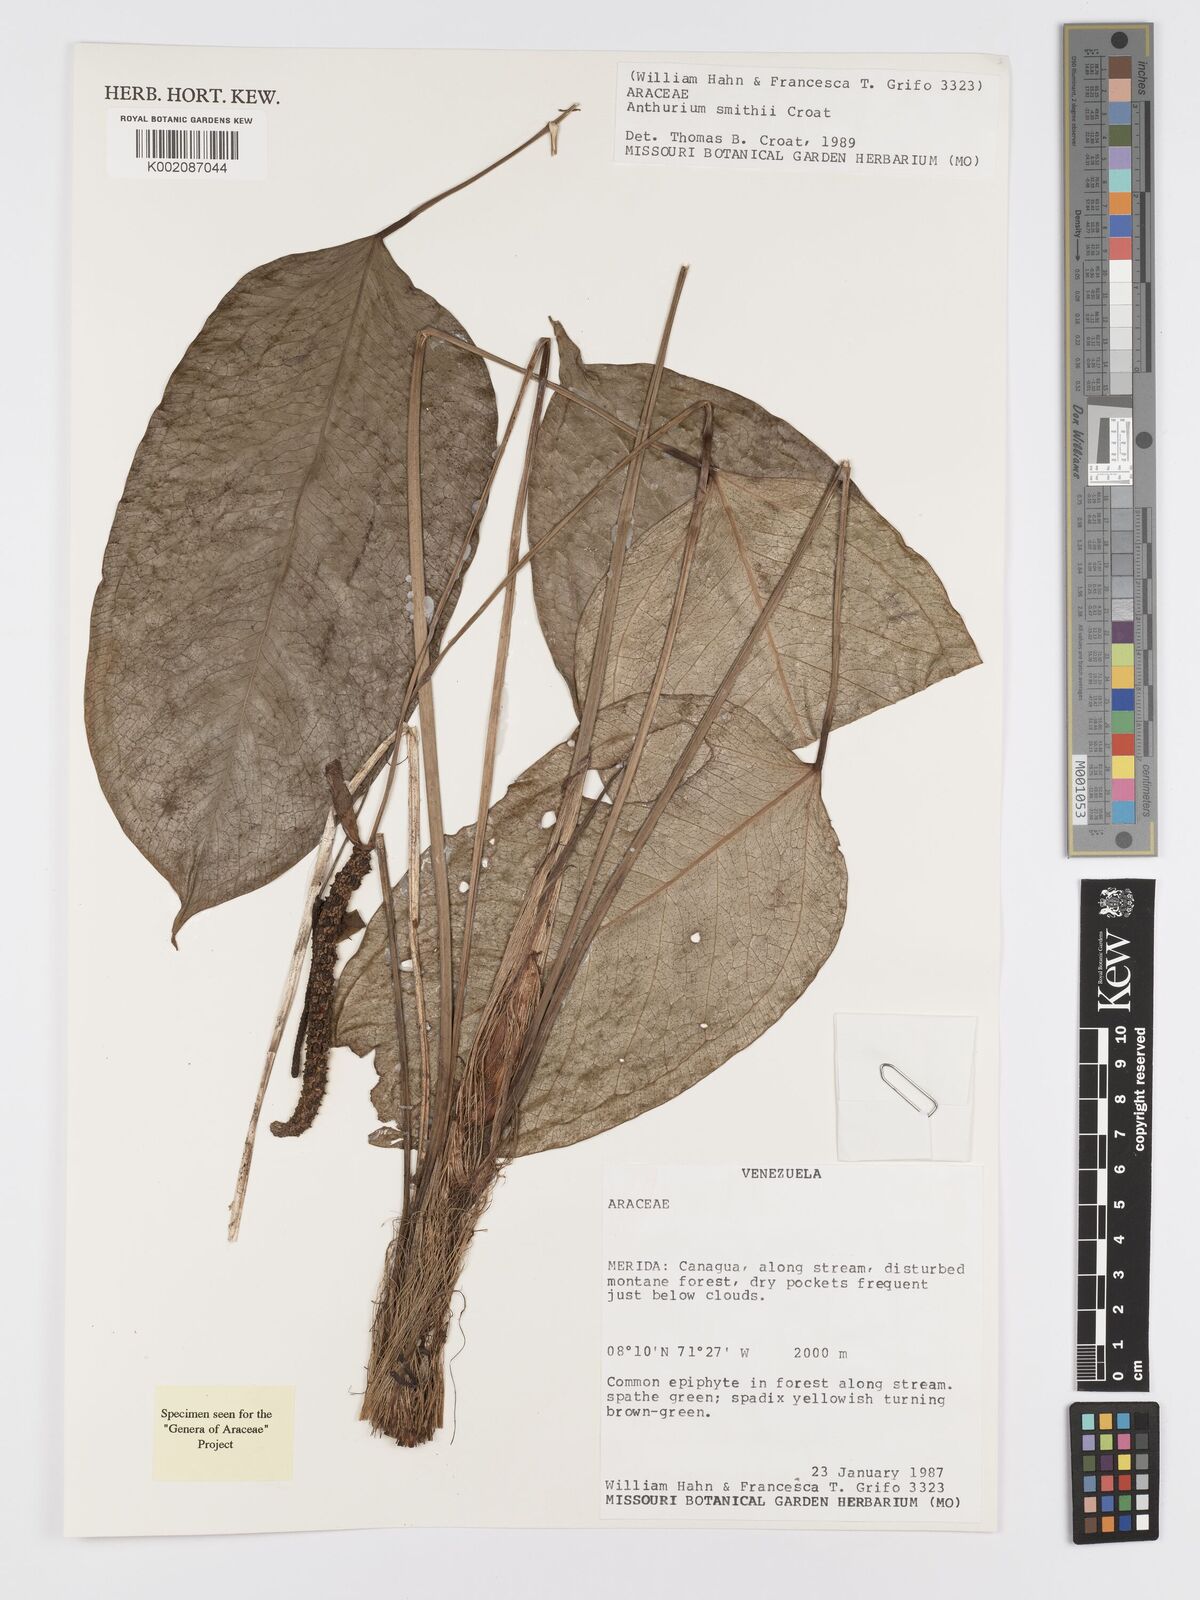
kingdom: Plantae
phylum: Tracheophyta
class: Liliopsida
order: Alismatales
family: Araceae
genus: Anthurium
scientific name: Anthurium smithii
